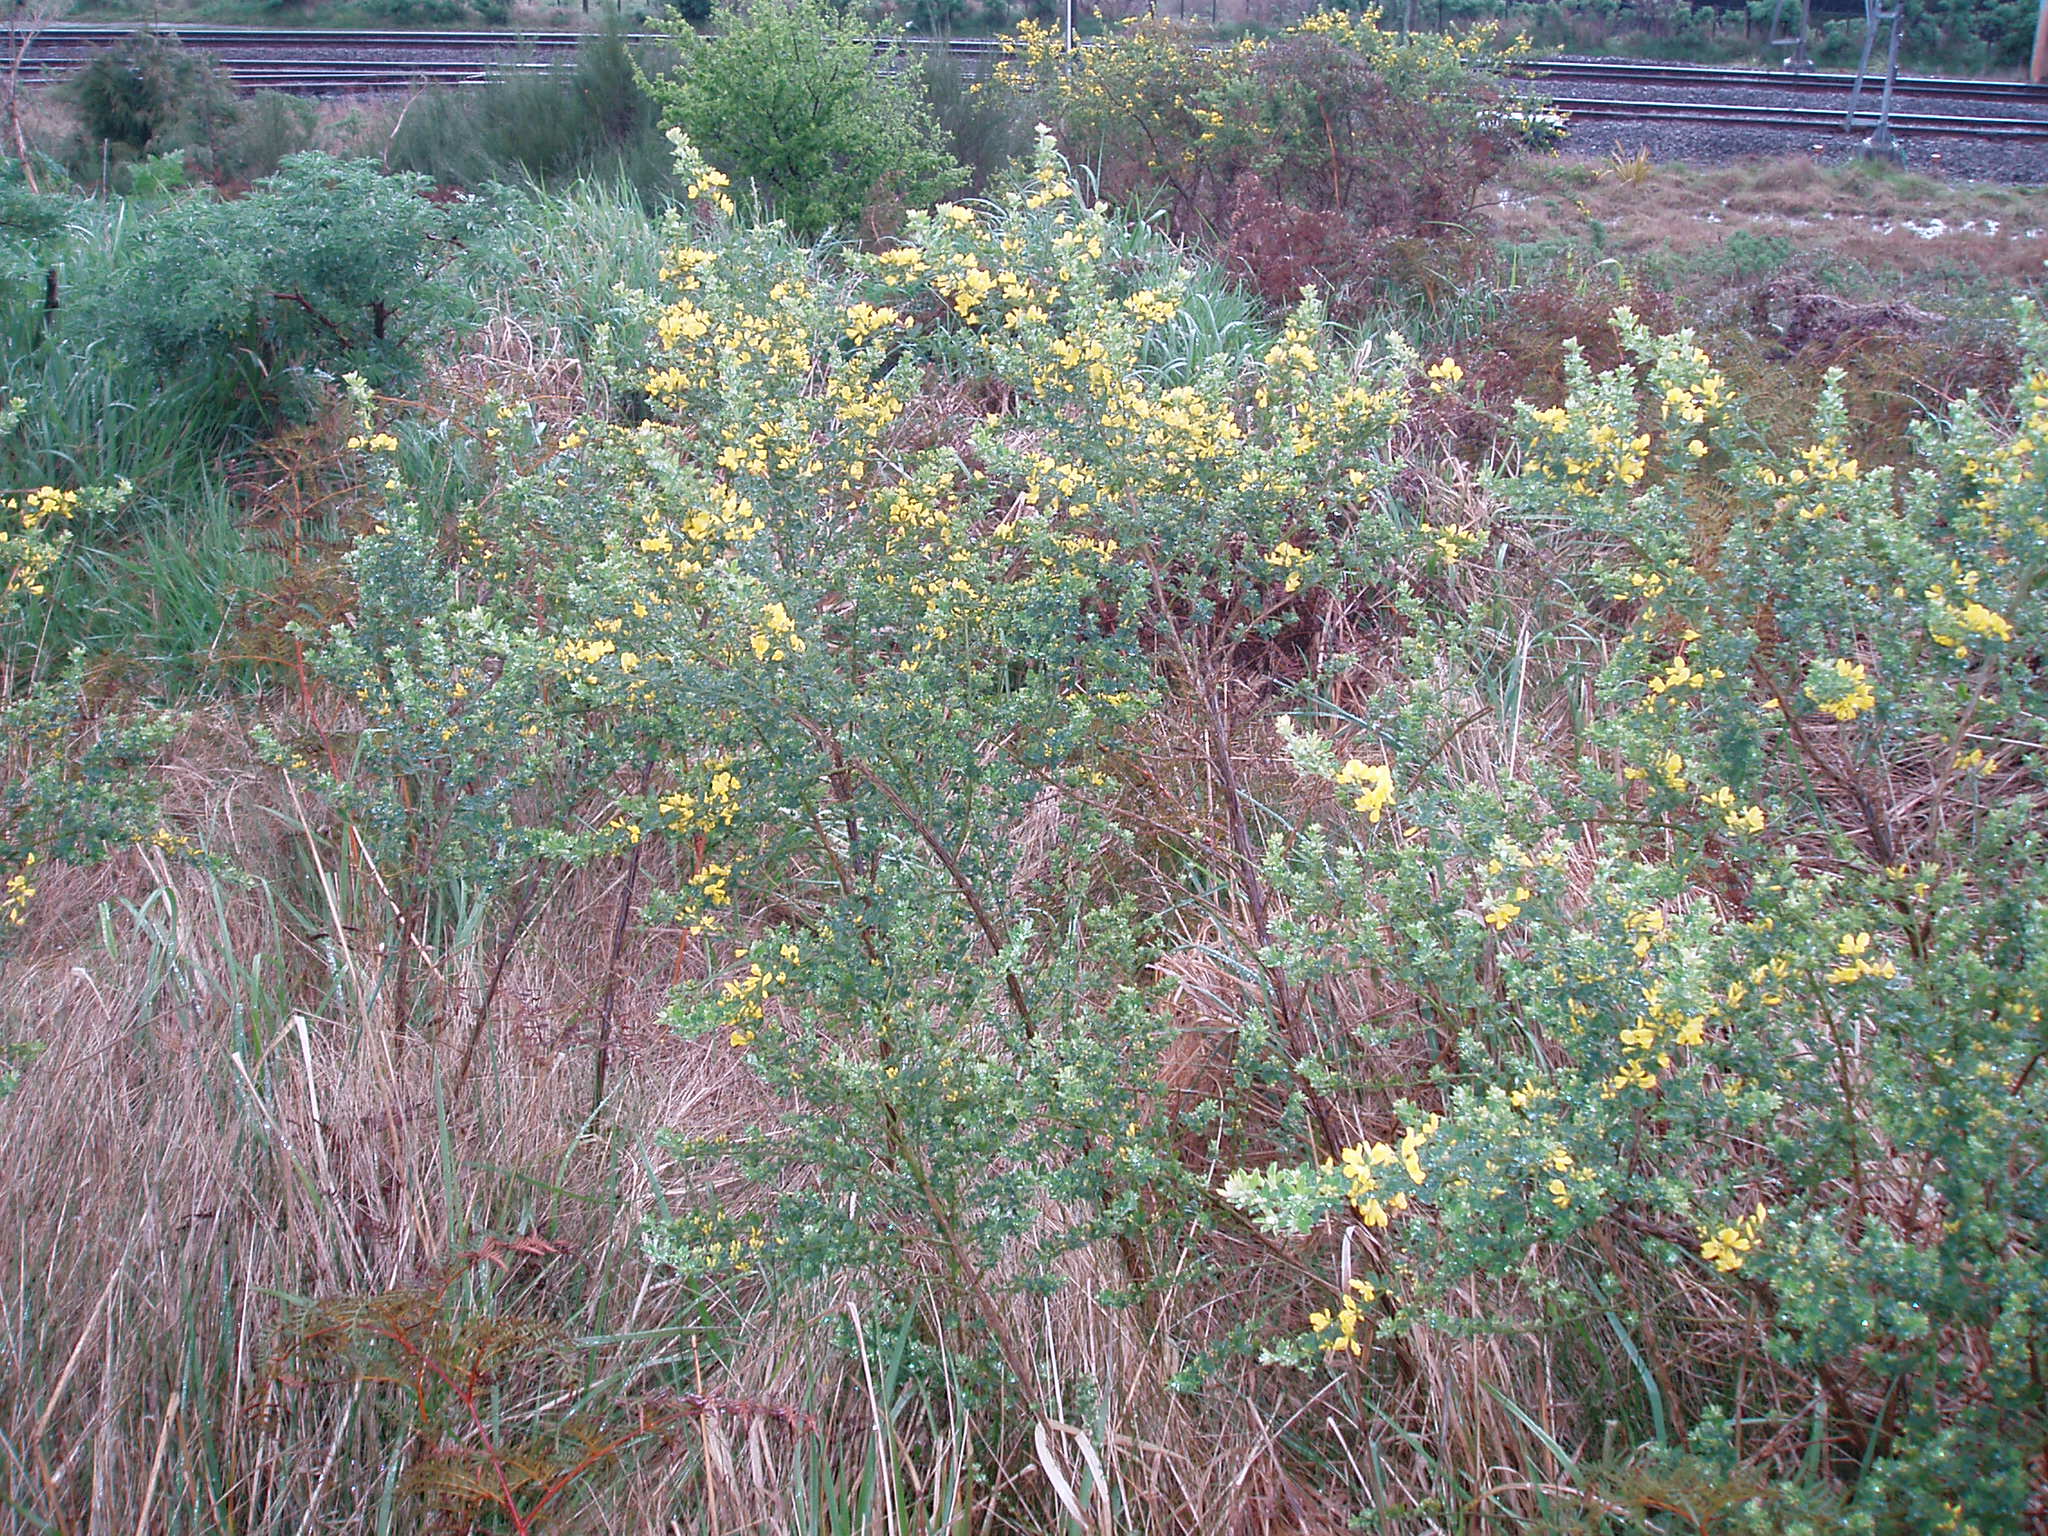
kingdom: Plantae
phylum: Tracheophyta
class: Magnoliopsida
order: Fabales
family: Fabaceae
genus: Genista
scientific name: Genista monspessulana
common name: Montpellier broom
